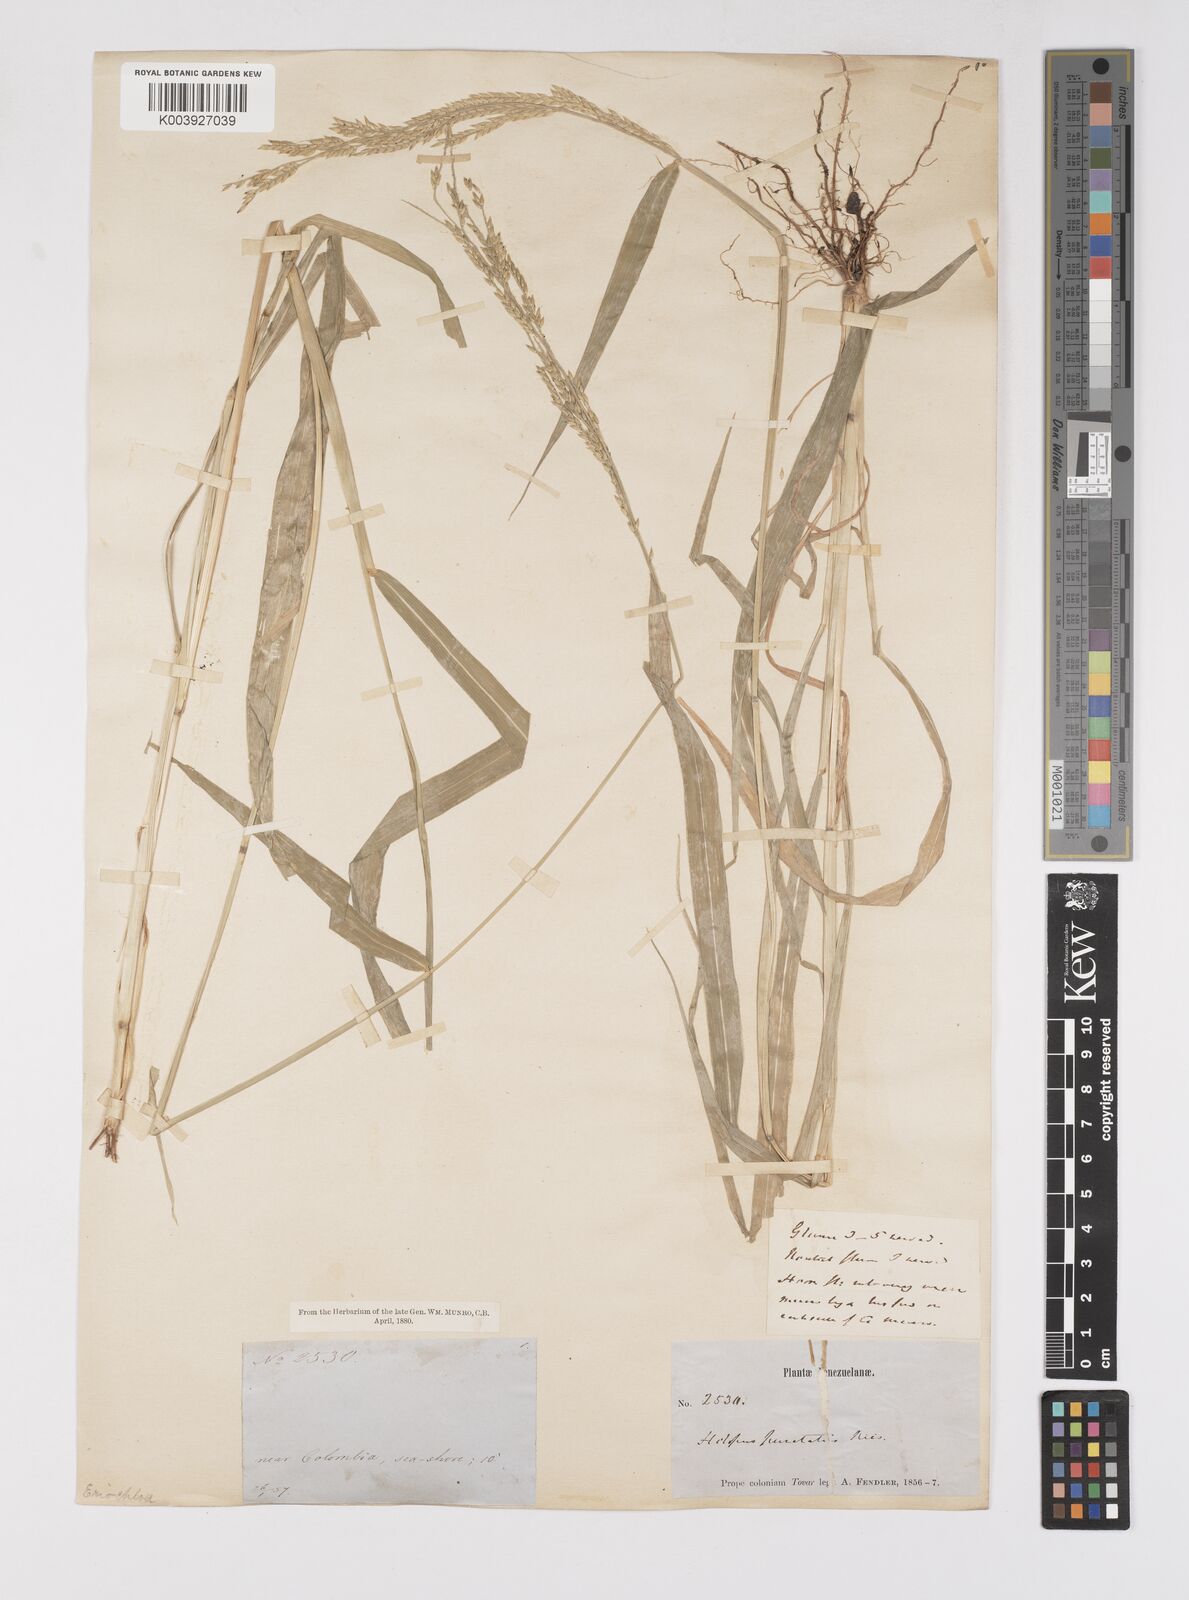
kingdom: Plantae
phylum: Tracheophyta
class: Liliopsida
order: Poales
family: Poaceae
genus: Eriochloa
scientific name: Eriochloa punctata
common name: Louisiana cupgrass
